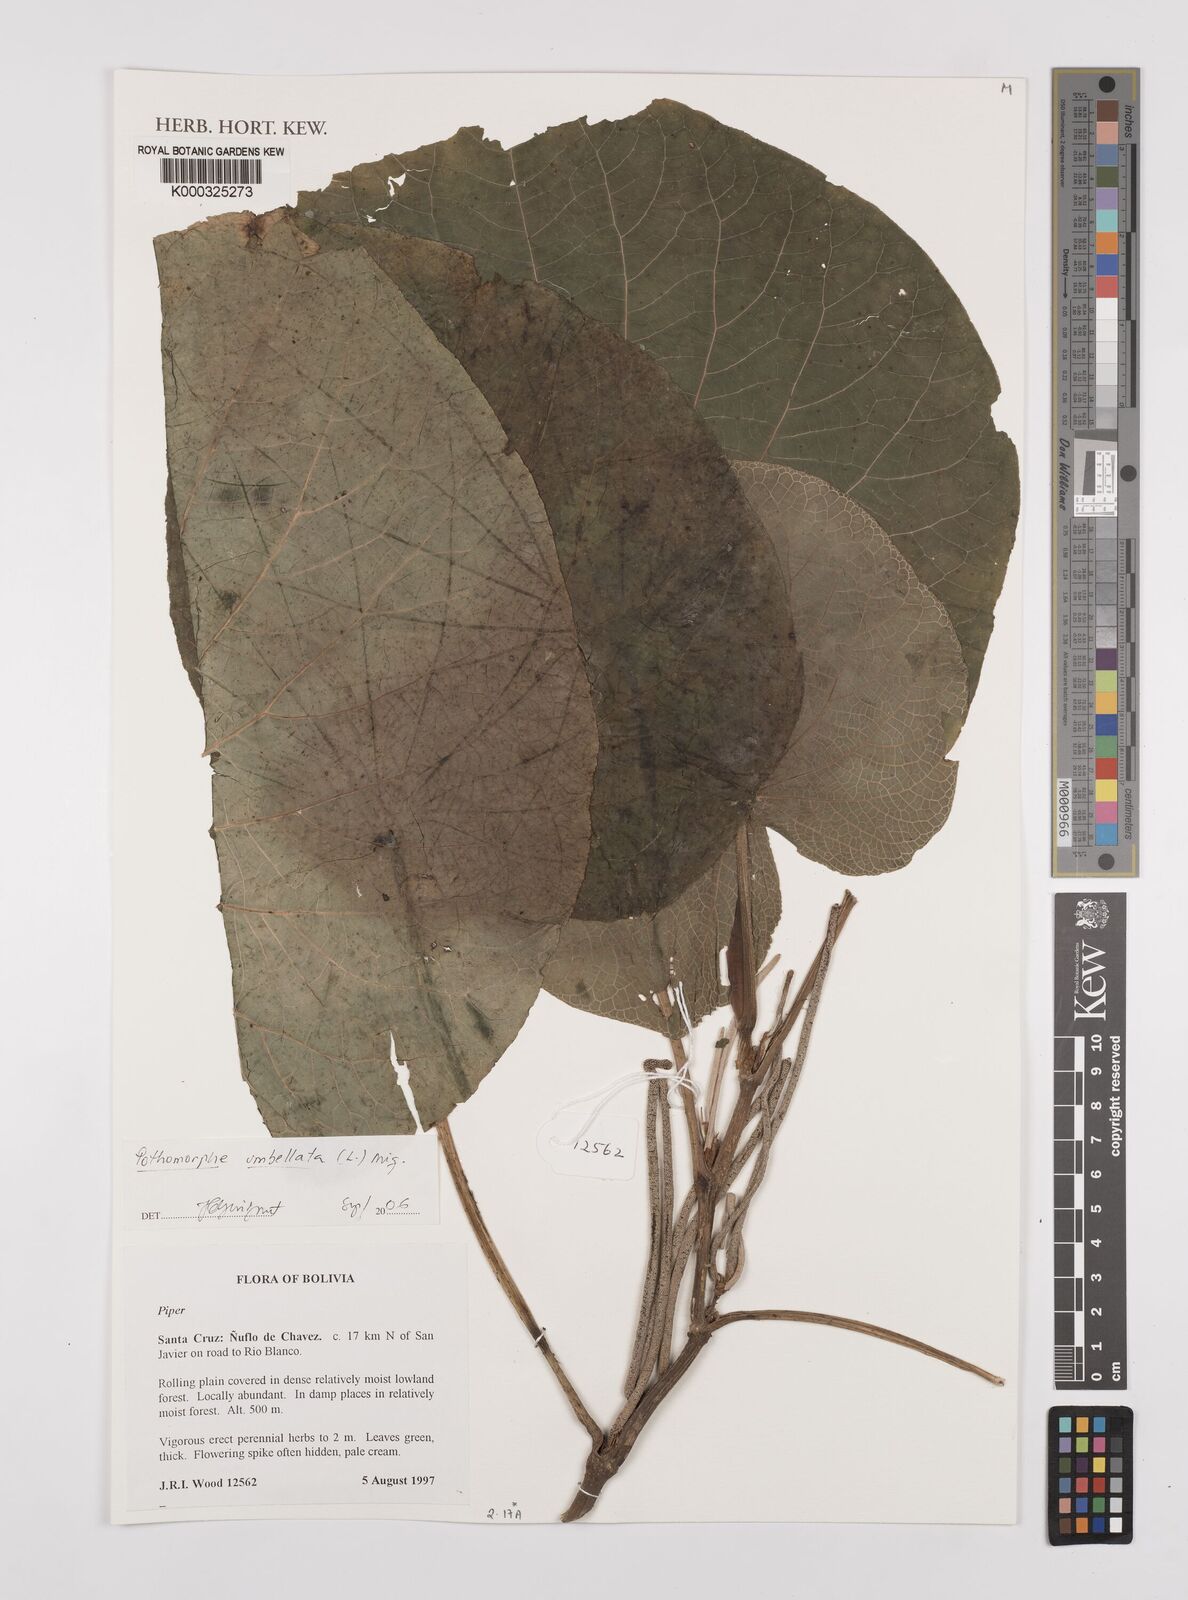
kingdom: Plantae
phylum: Tracheophyta
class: Magnoliopsida
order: Piperales
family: Piperaceae
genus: Piper
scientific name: Piper umbellatum
